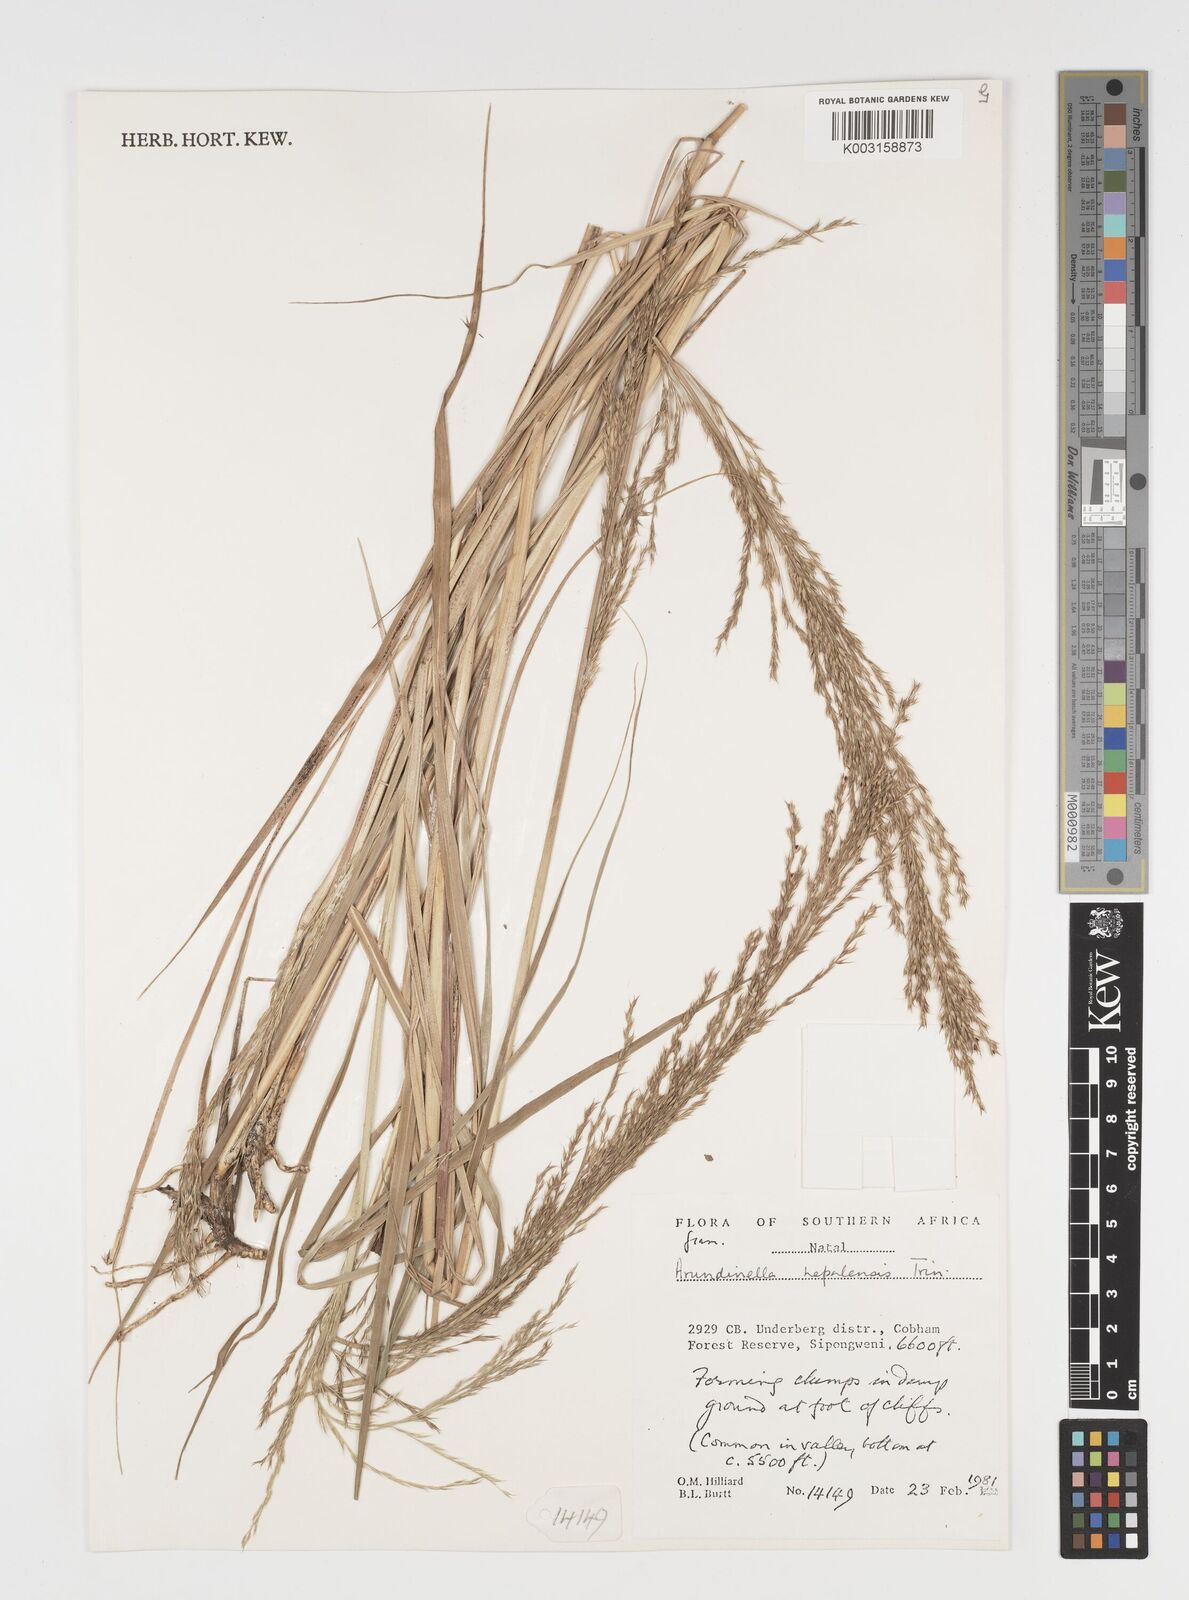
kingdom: Plantae
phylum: Tracheophyta
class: Liliopsida
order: Poales
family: Poaceae
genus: Arundinella
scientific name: Arundinella nepalensis
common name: Reed grass
